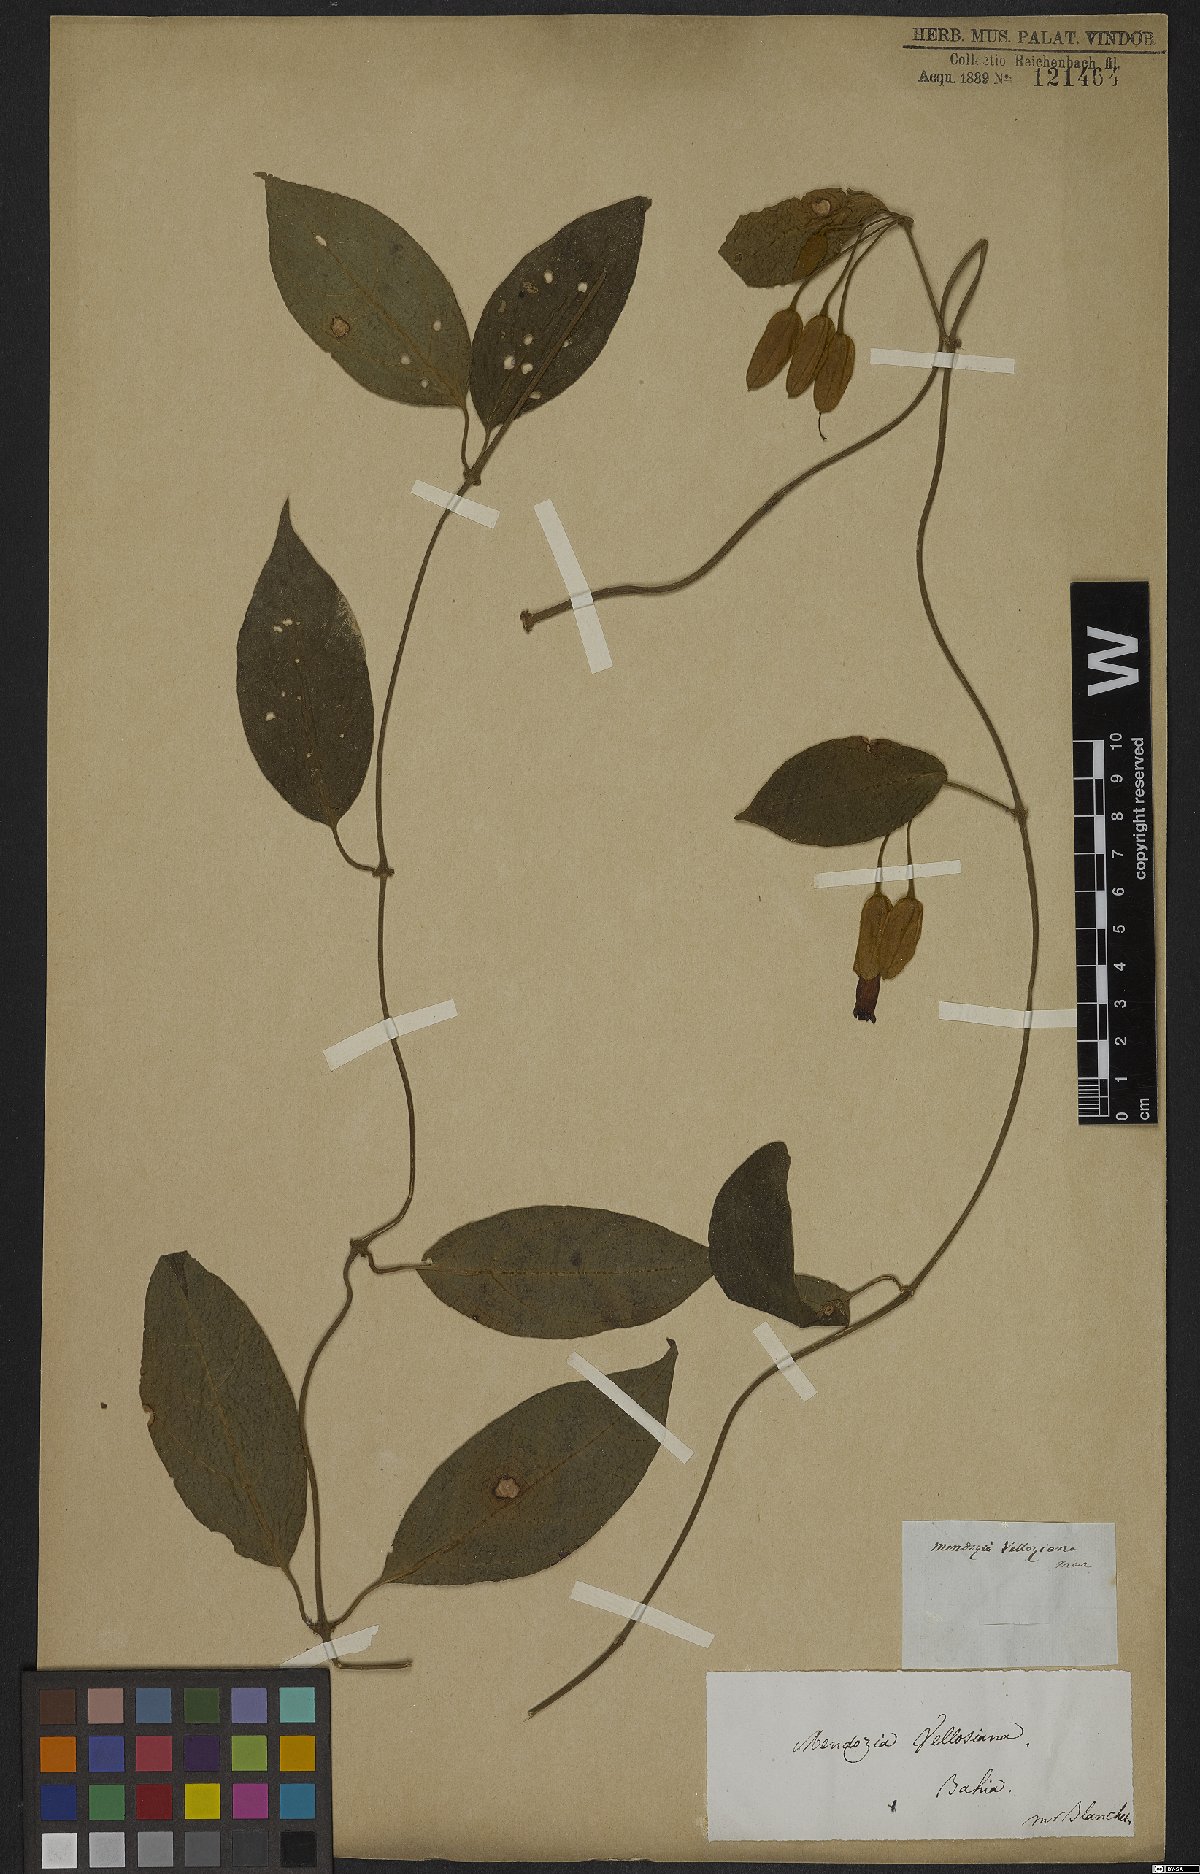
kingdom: Plantae
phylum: Tracheophyta
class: Magnoliopsida
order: Lamiales
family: Acanthaceae
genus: Mendoncia
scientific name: Mendoncia velloziana
